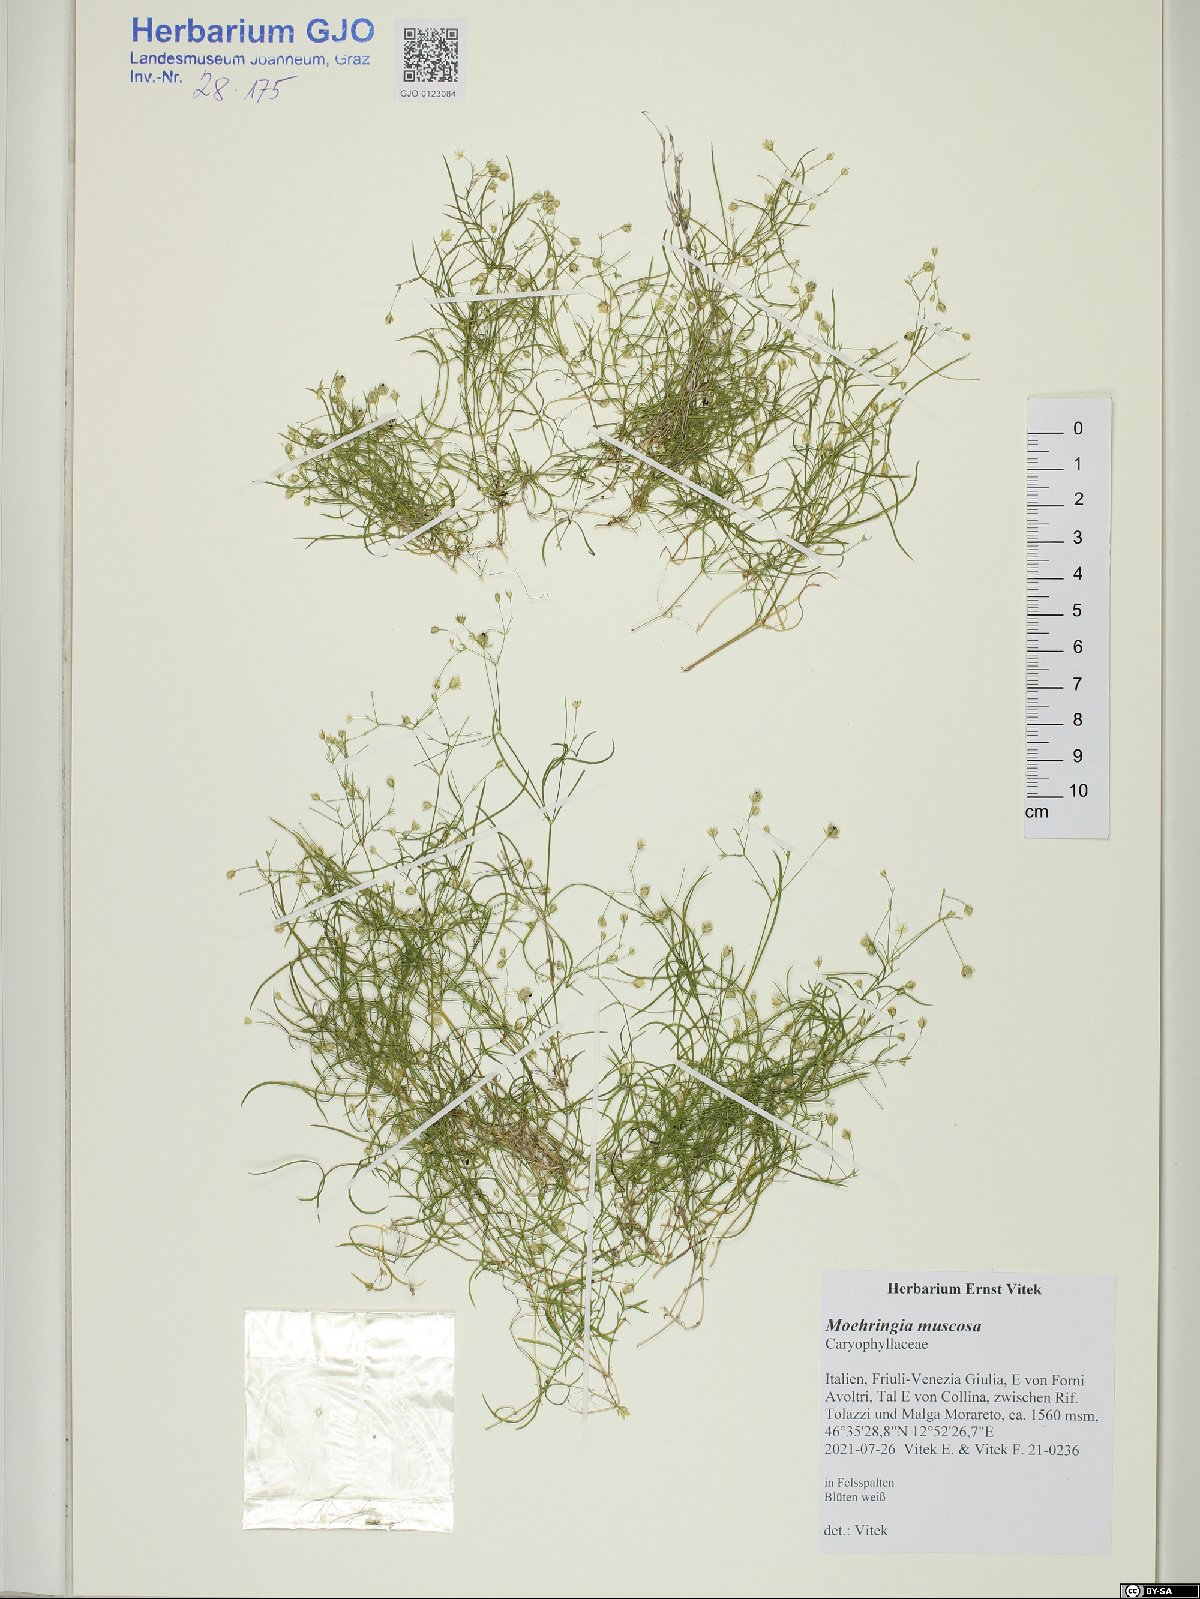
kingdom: Plantae
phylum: Tracheophyta
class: Magnoliopsida
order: Caryophyllales
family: Caryophyllaceae
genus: Moehringia
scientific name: Moehringia muscosa
